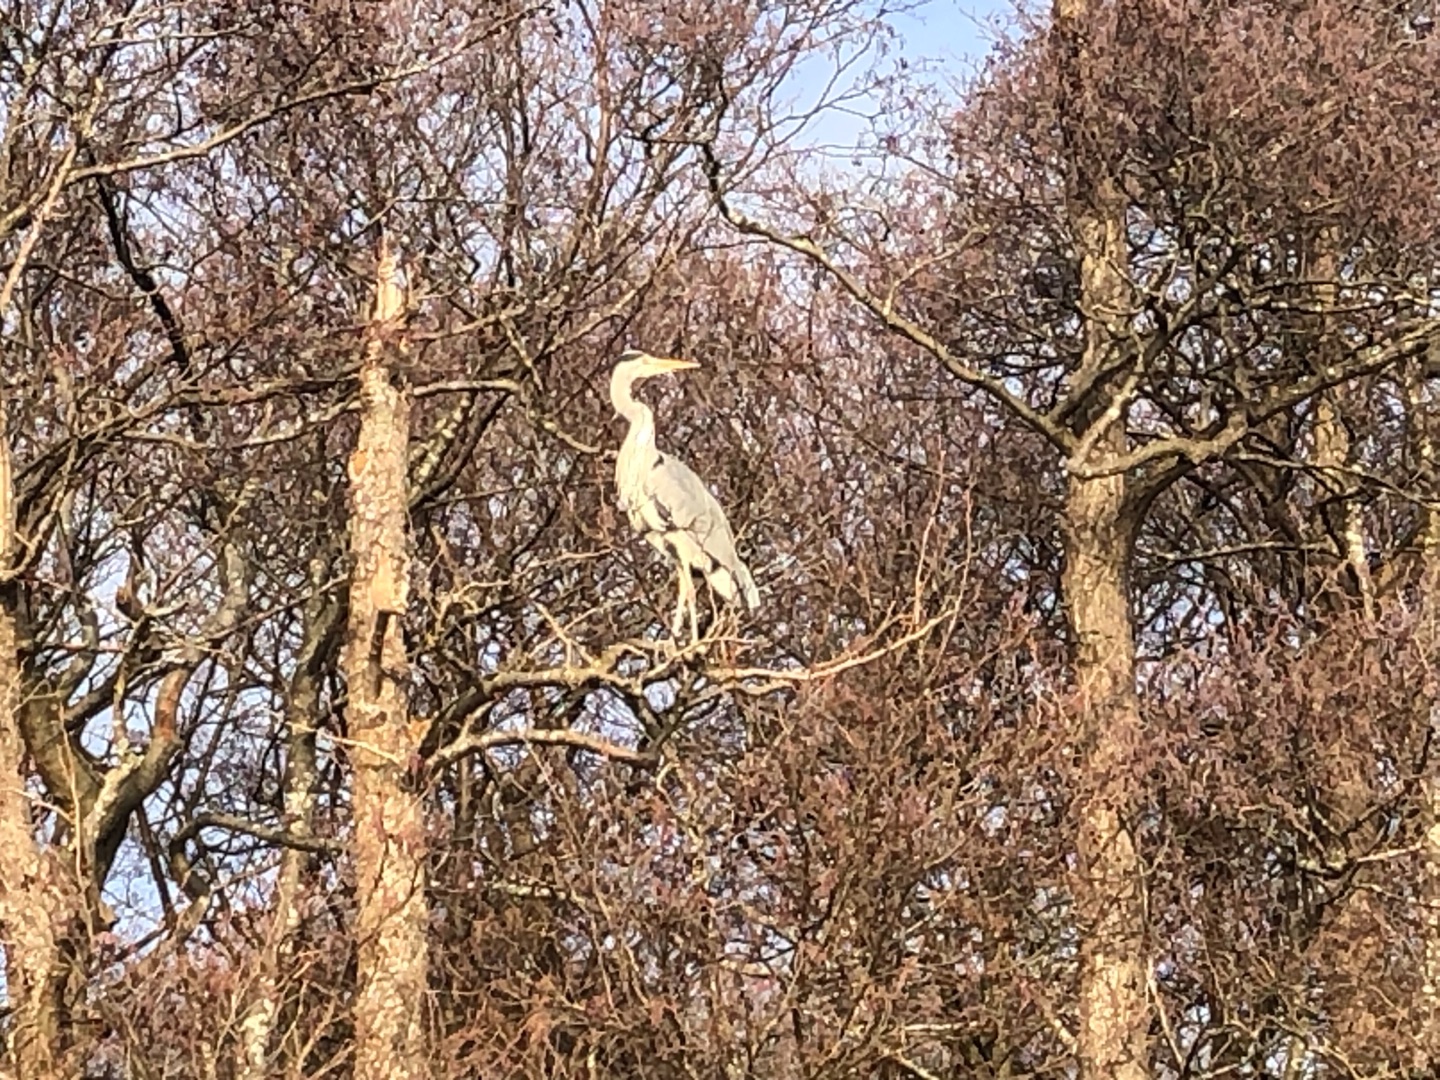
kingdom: Animalia
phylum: Chordata
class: Aves
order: Pelecaniformes
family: Ardeidae
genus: Ardea
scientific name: Ardea cinerea
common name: Fiskehejre
